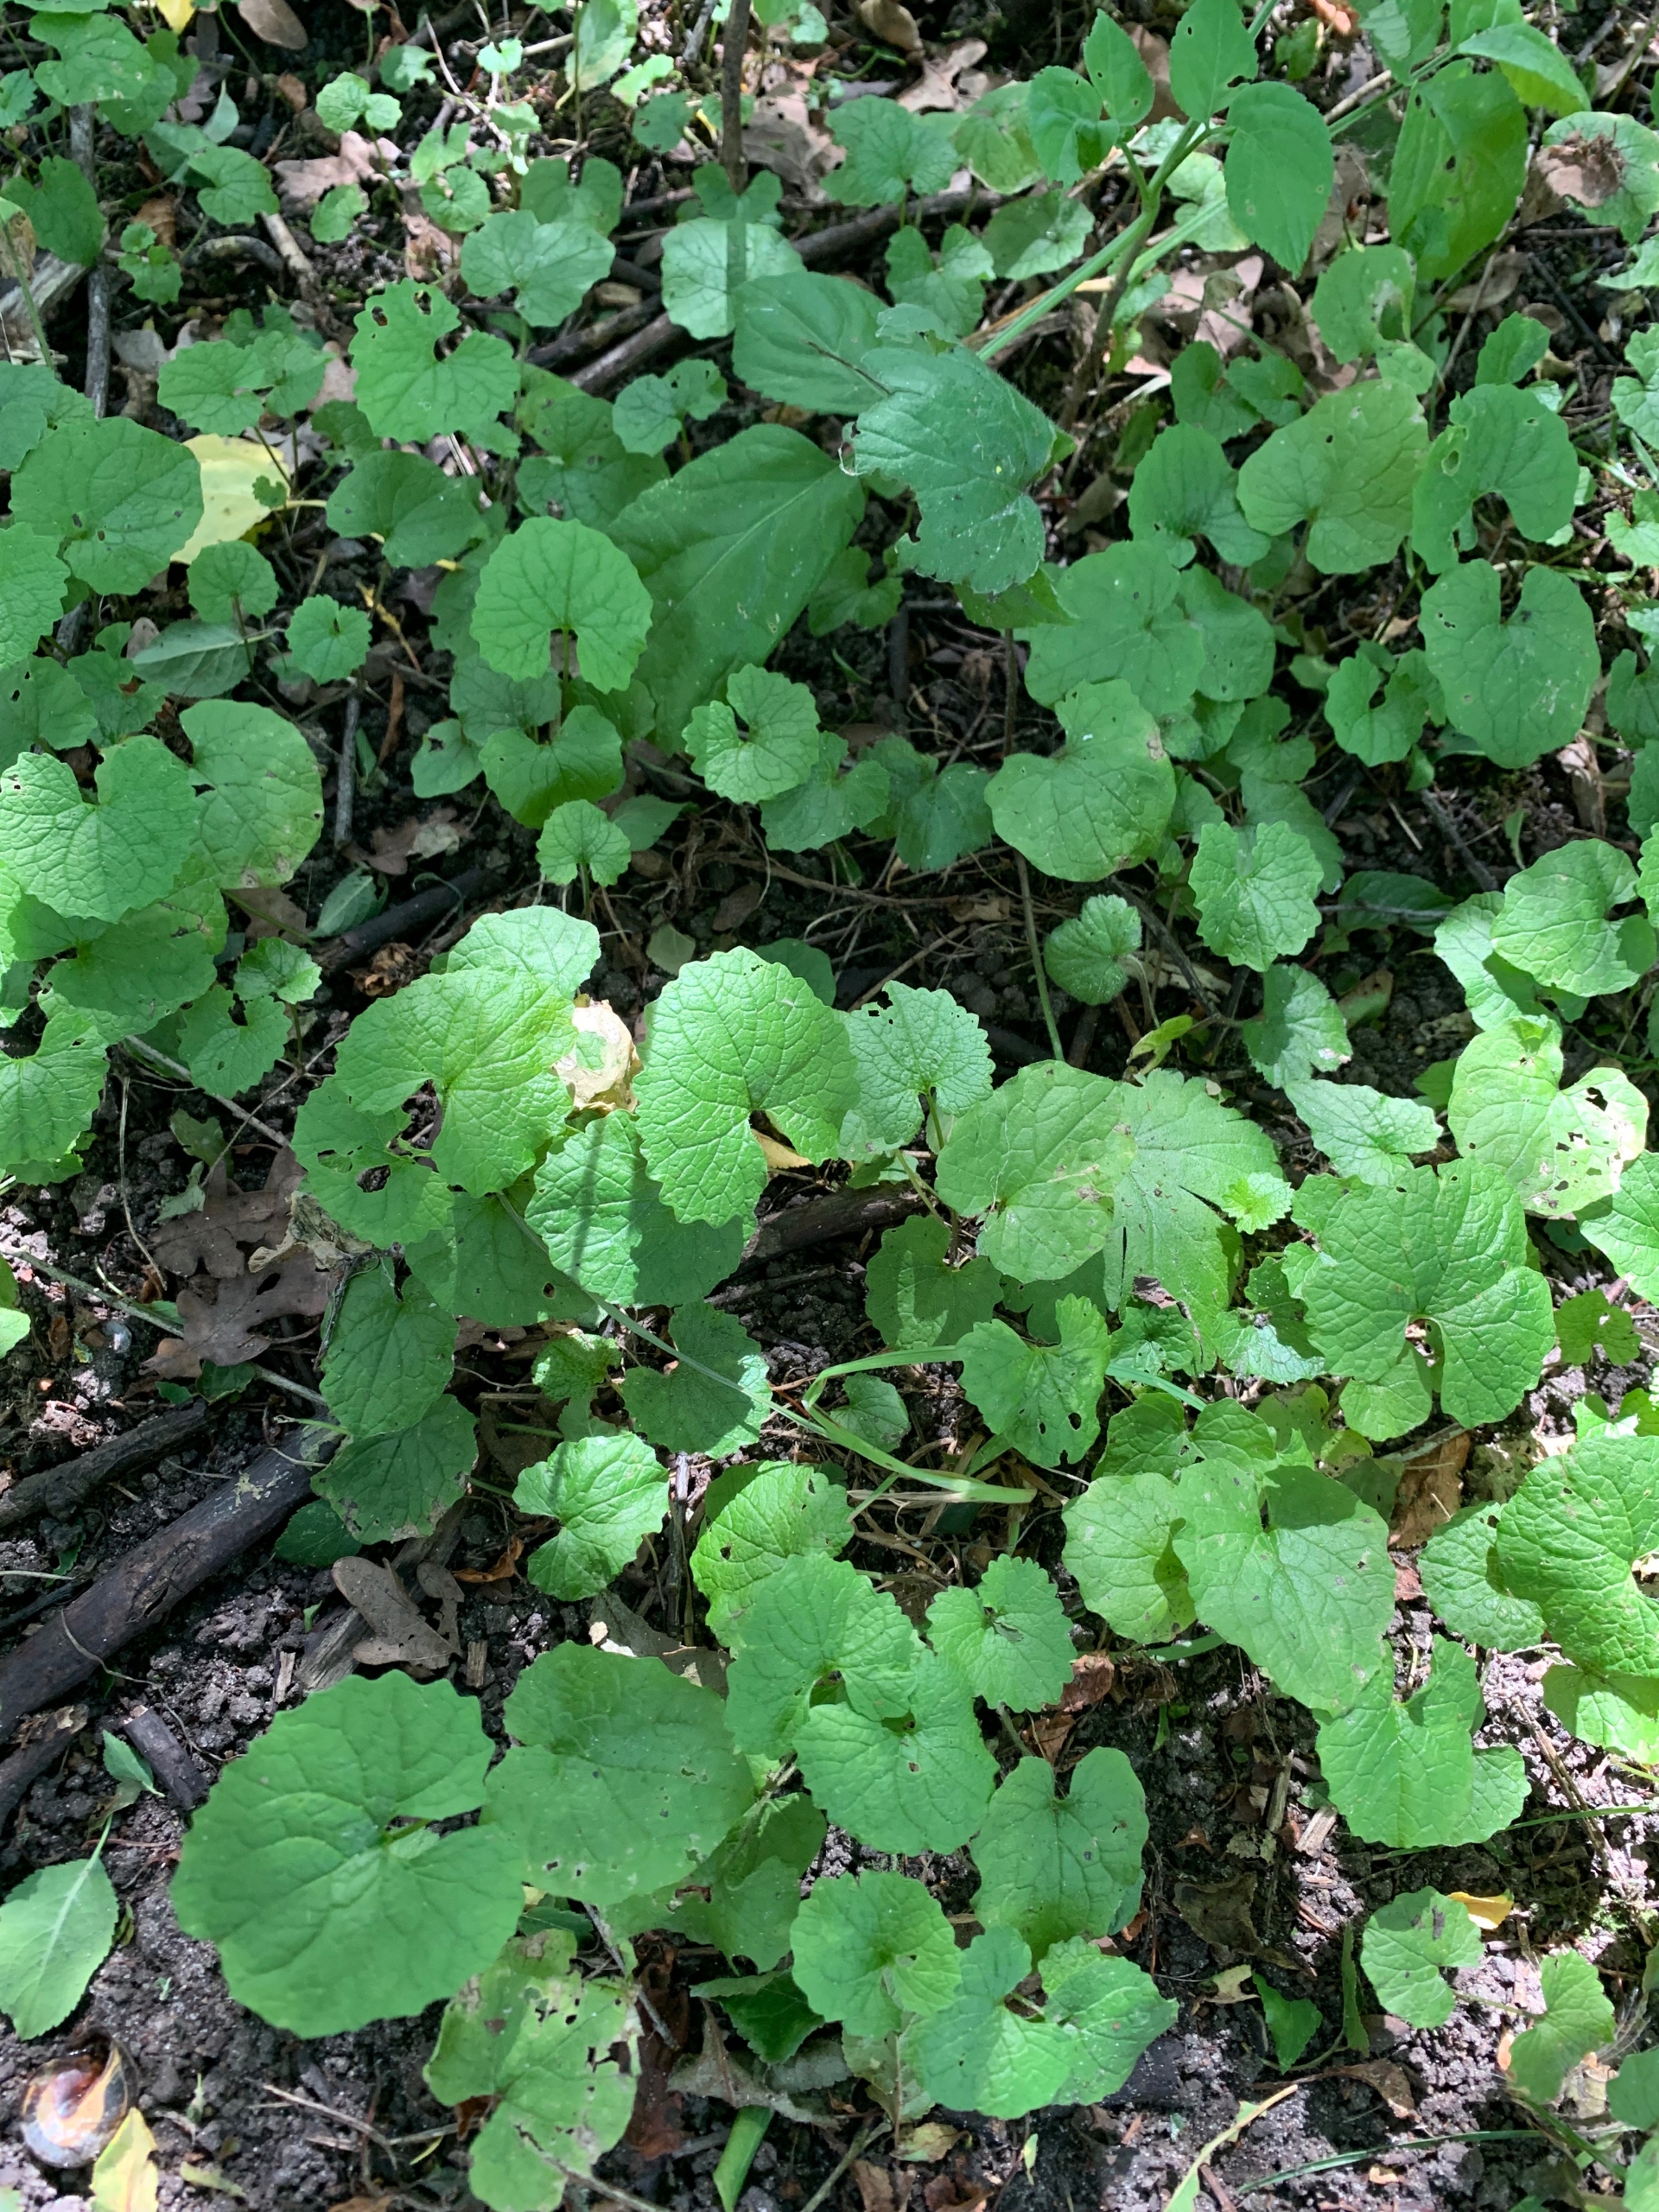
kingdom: Plantae
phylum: Tracheophyta
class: Magnoliopsida
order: Brassicales
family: Brassicaceae
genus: Alliaria
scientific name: Alliaria petiolata
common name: Løgkarse
